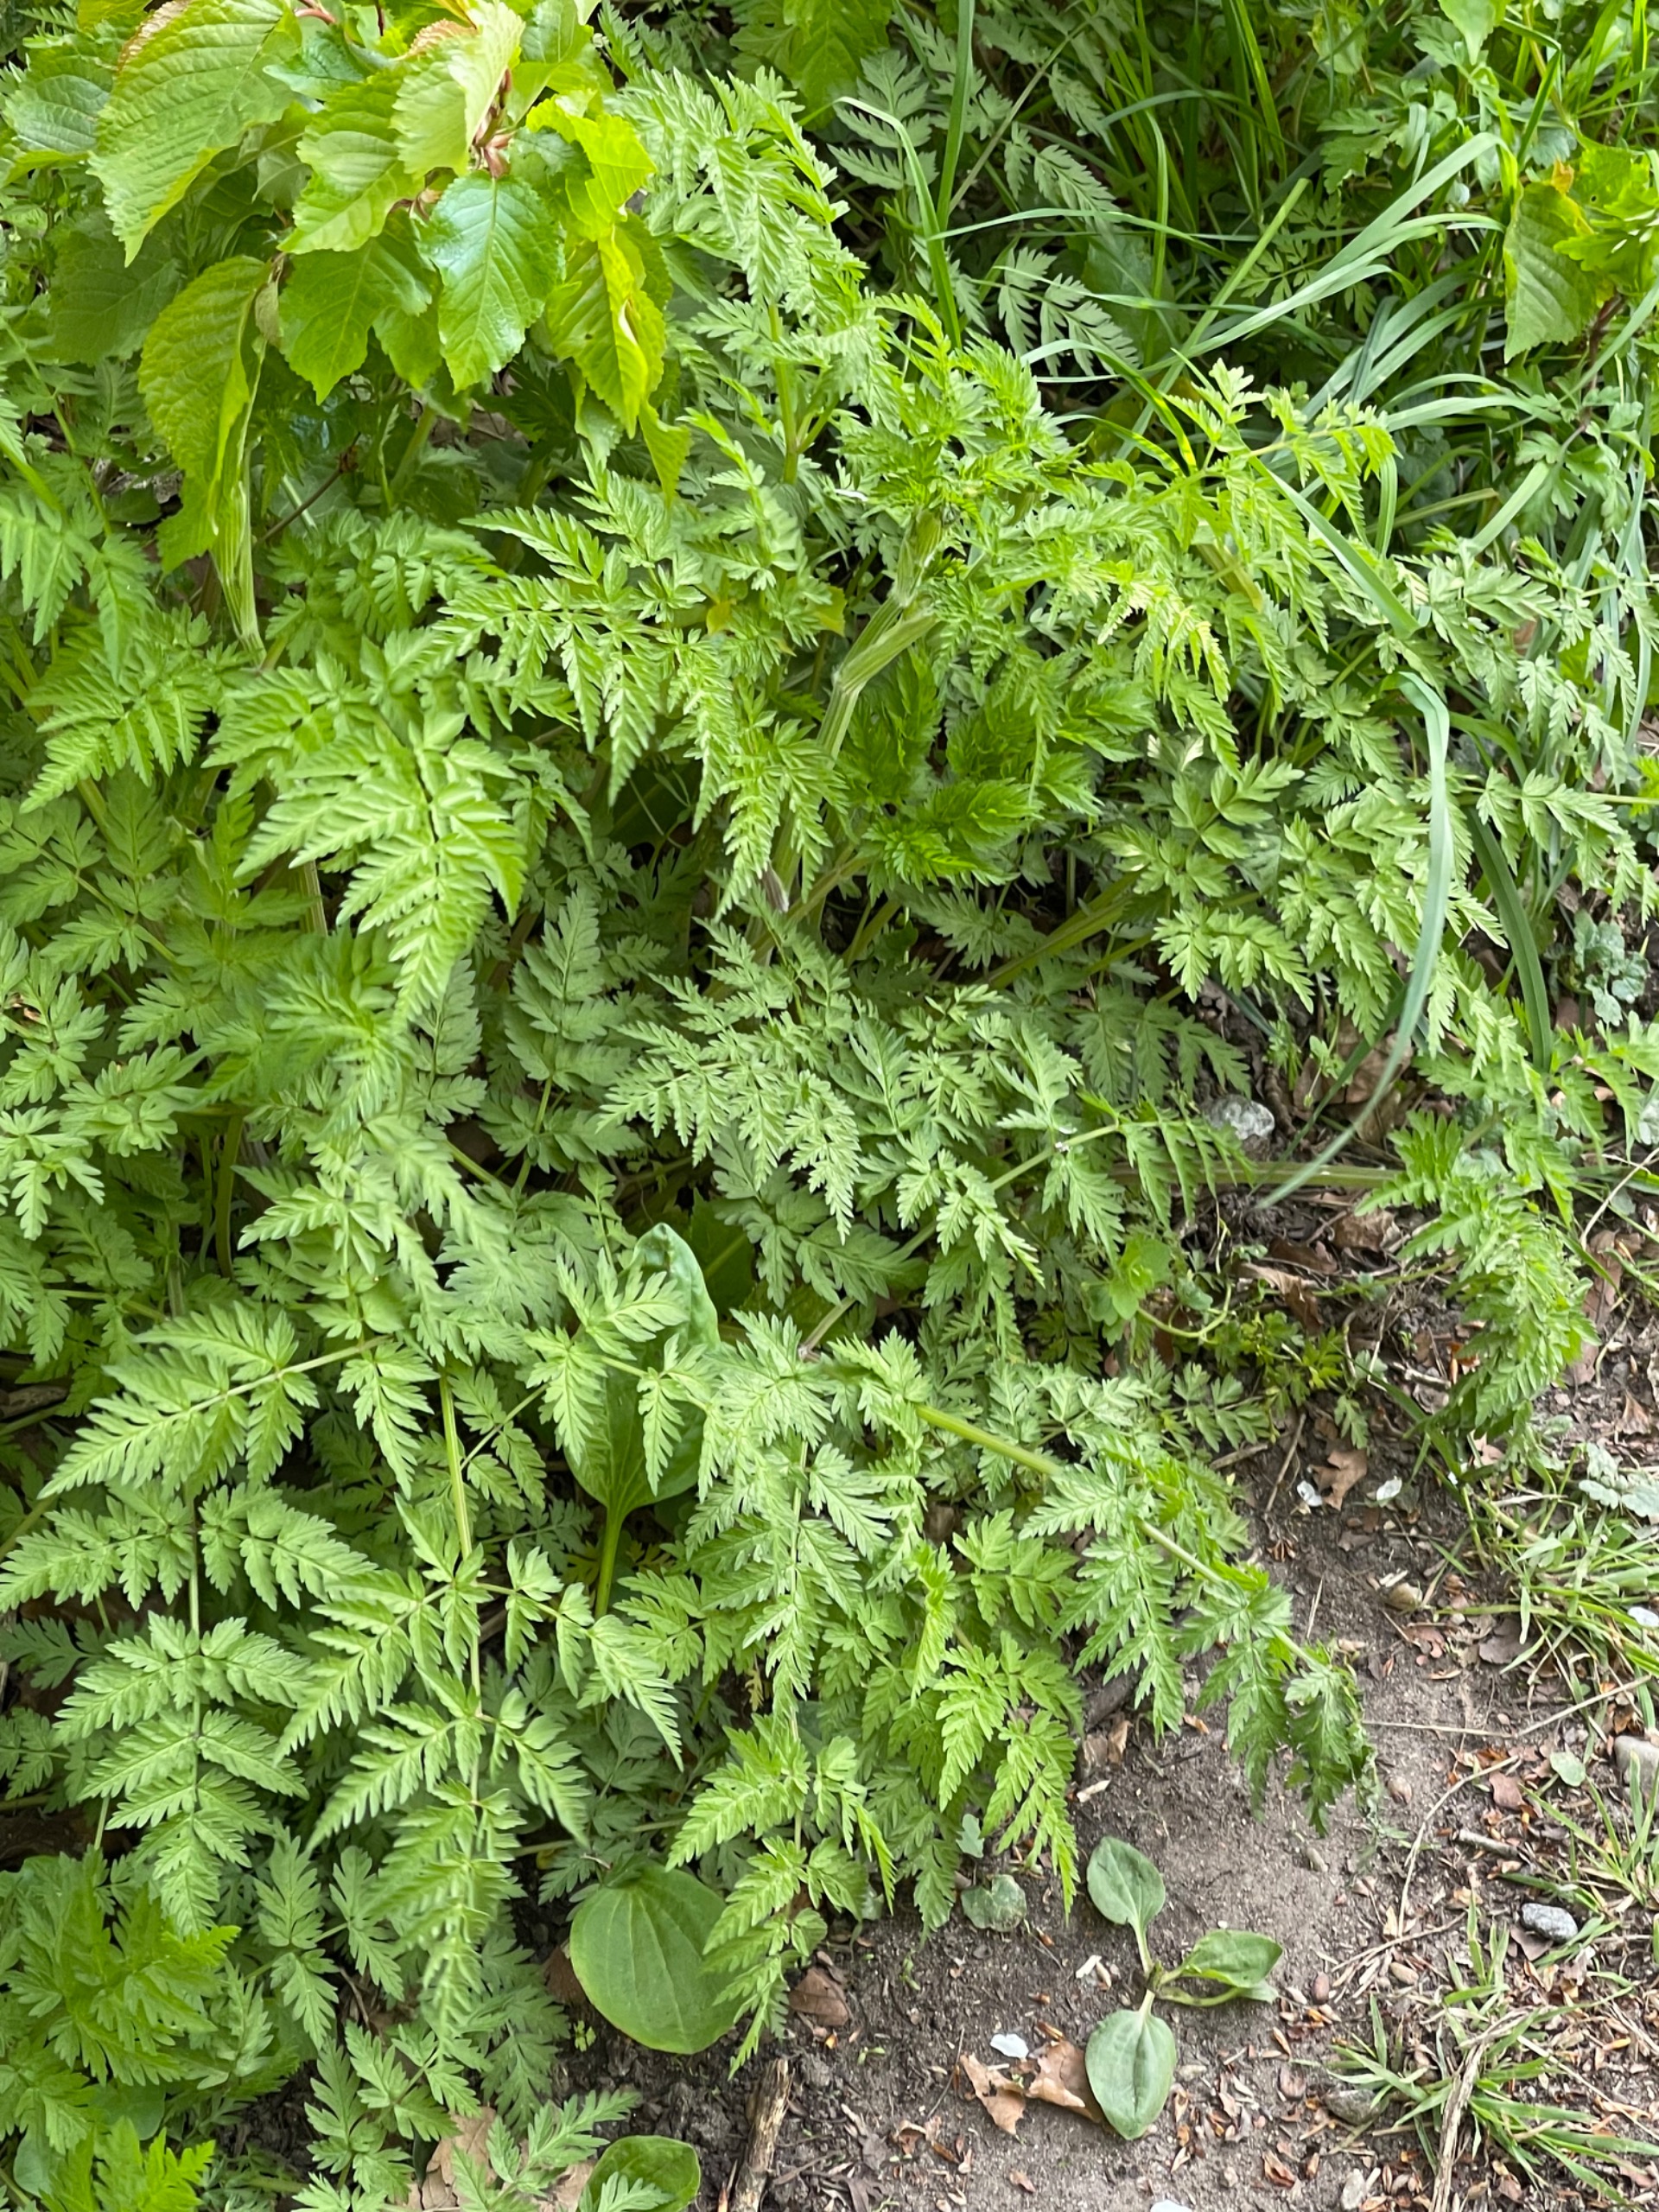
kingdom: Plantae
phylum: Tracheophyta
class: Magnoliopsida
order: Apiales
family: Apiaceae
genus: Anthriscus
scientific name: Anthriscus sylvestris
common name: Vild kørvel
